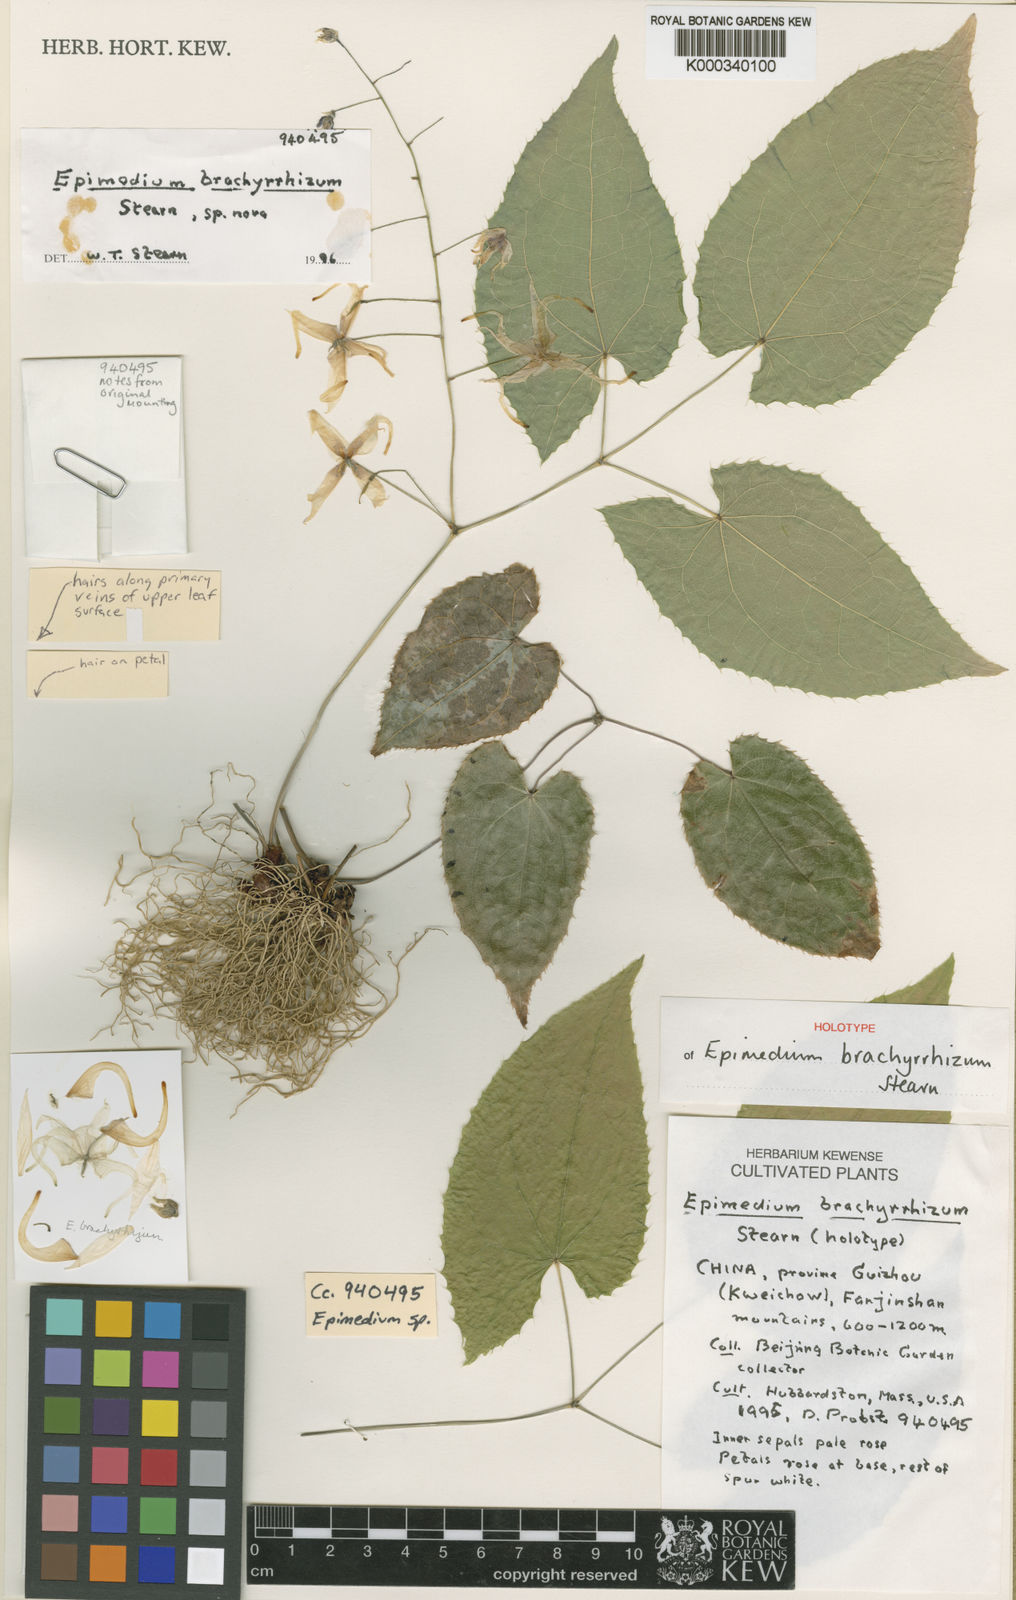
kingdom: Plantae
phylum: Tracheophyta
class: Magnoliopsida
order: Ranunculales
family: Berberidaceae
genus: Epimedium
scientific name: Epimedium leptorrhizum
